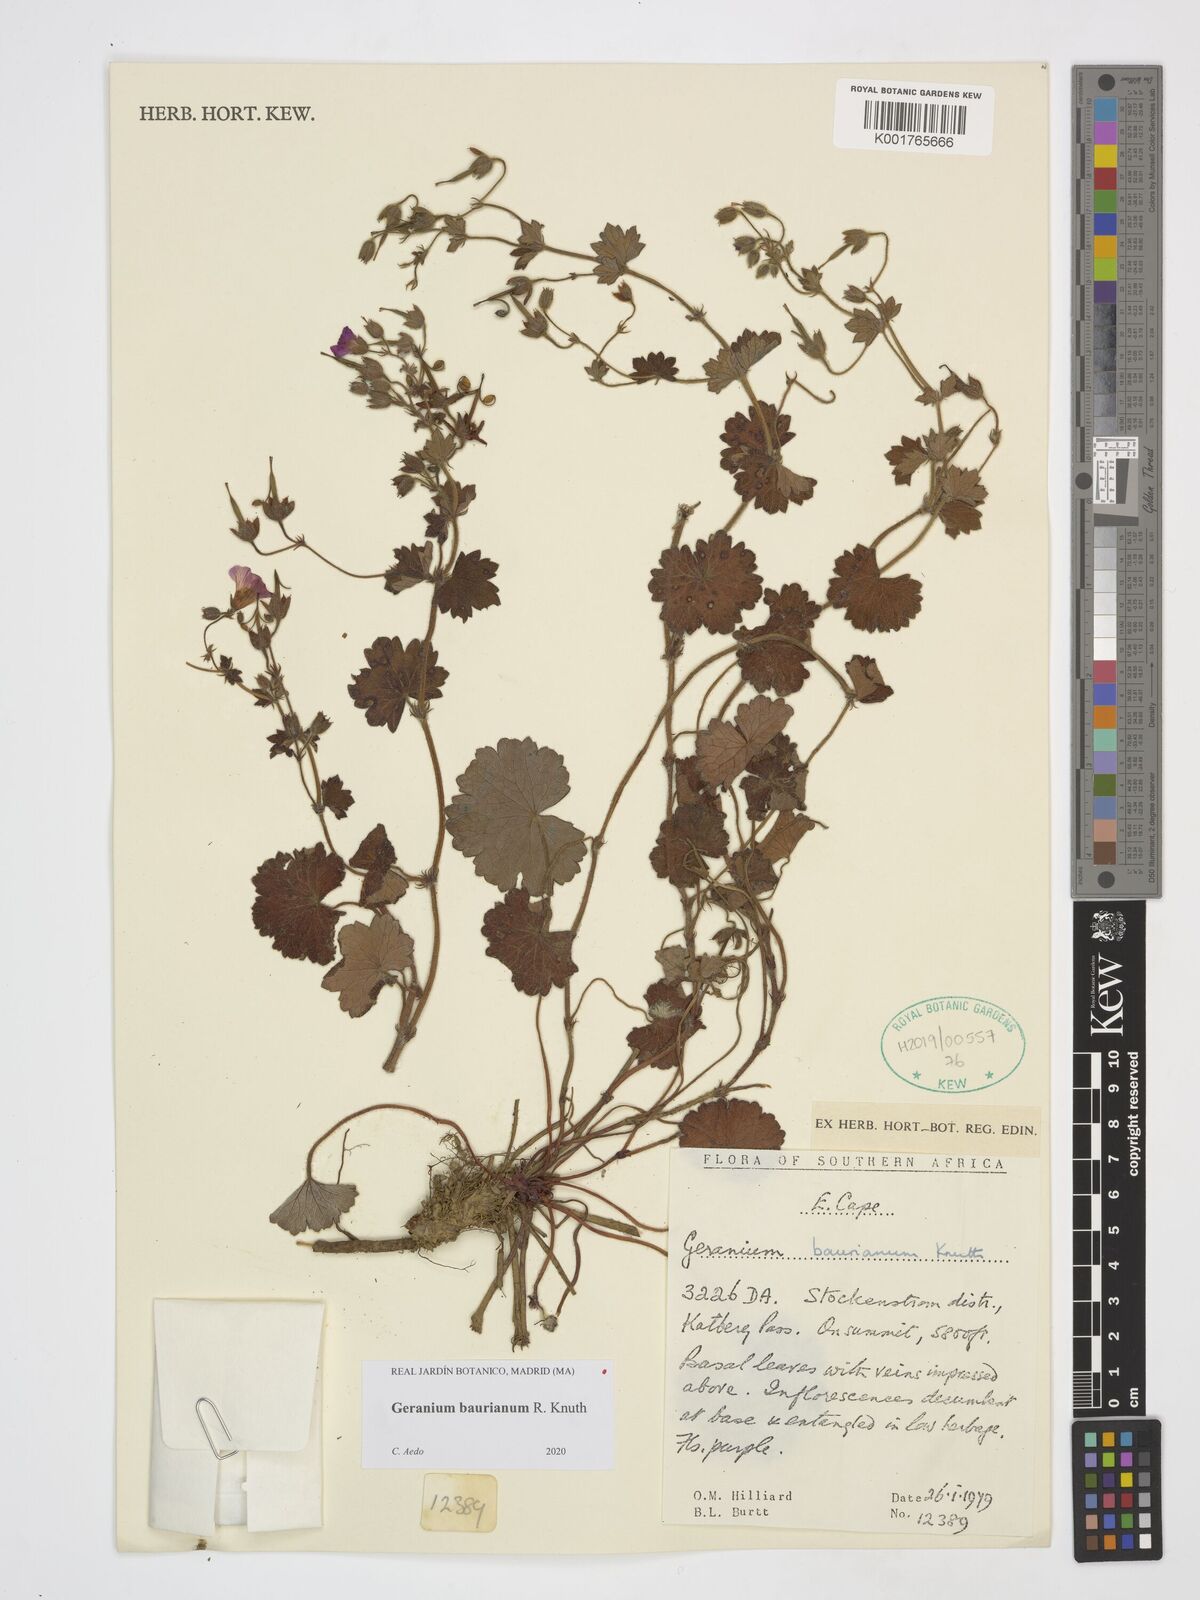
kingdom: Plantae
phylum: Tracheophyta
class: Magnoliopsida
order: Geraniales
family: Geraniaceae
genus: Geranium
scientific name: Geranium baurianum
